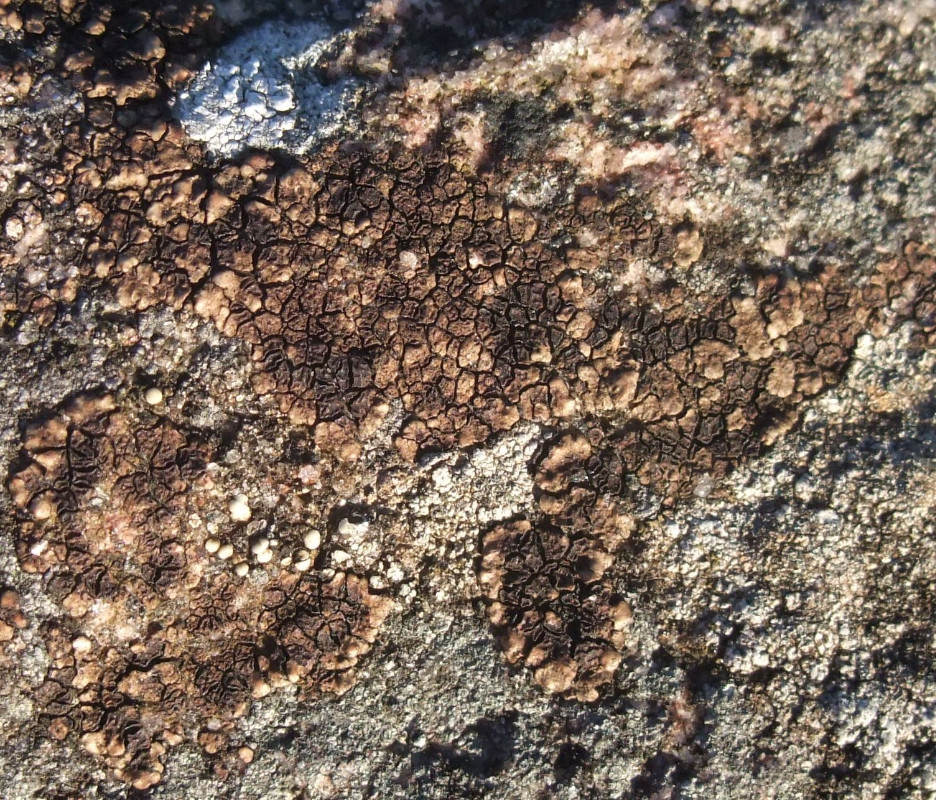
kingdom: Fungi
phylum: Ascomycota
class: Lecanoromycetes
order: Acarosporales
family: Acarosporaceae
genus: Acarospora
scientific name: Acarospora fuscata
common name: brun småsporelav
